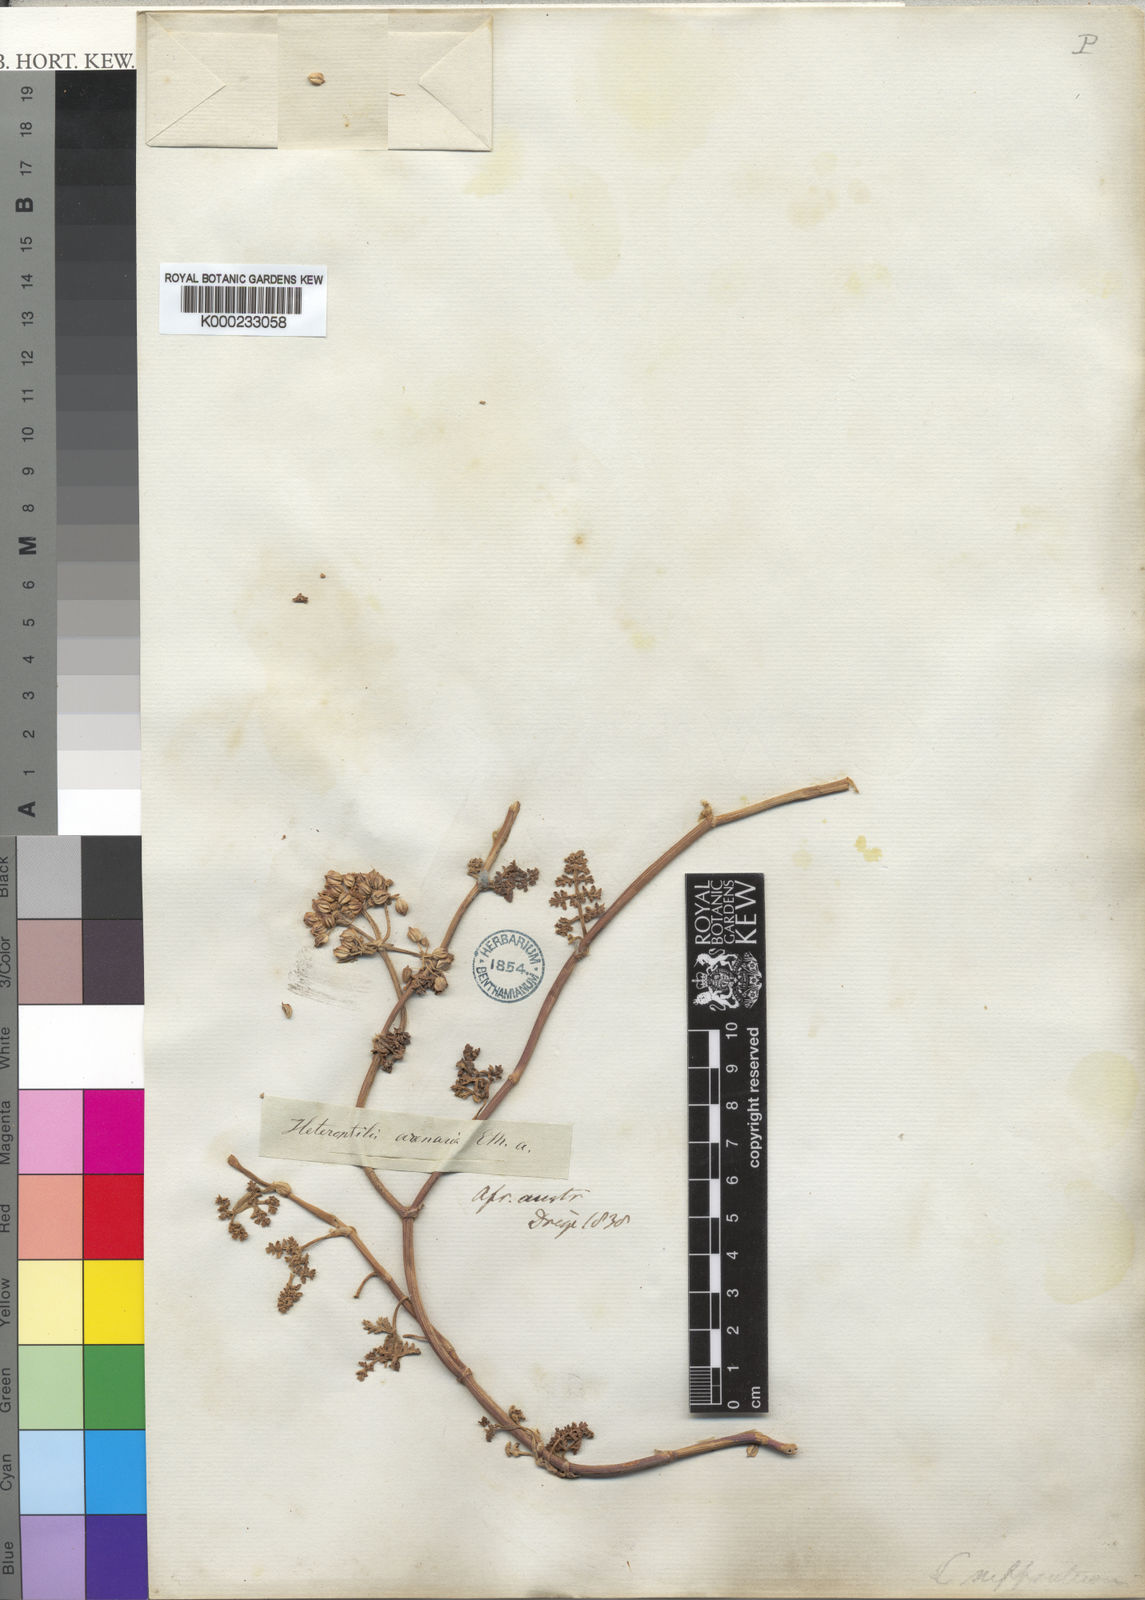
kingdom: Plantae
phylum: Tracheophyta
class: Magnoliopsida
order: Apiales
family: Apiaceae
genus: Dasispermum
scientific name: Dasispermum suffruticosum
